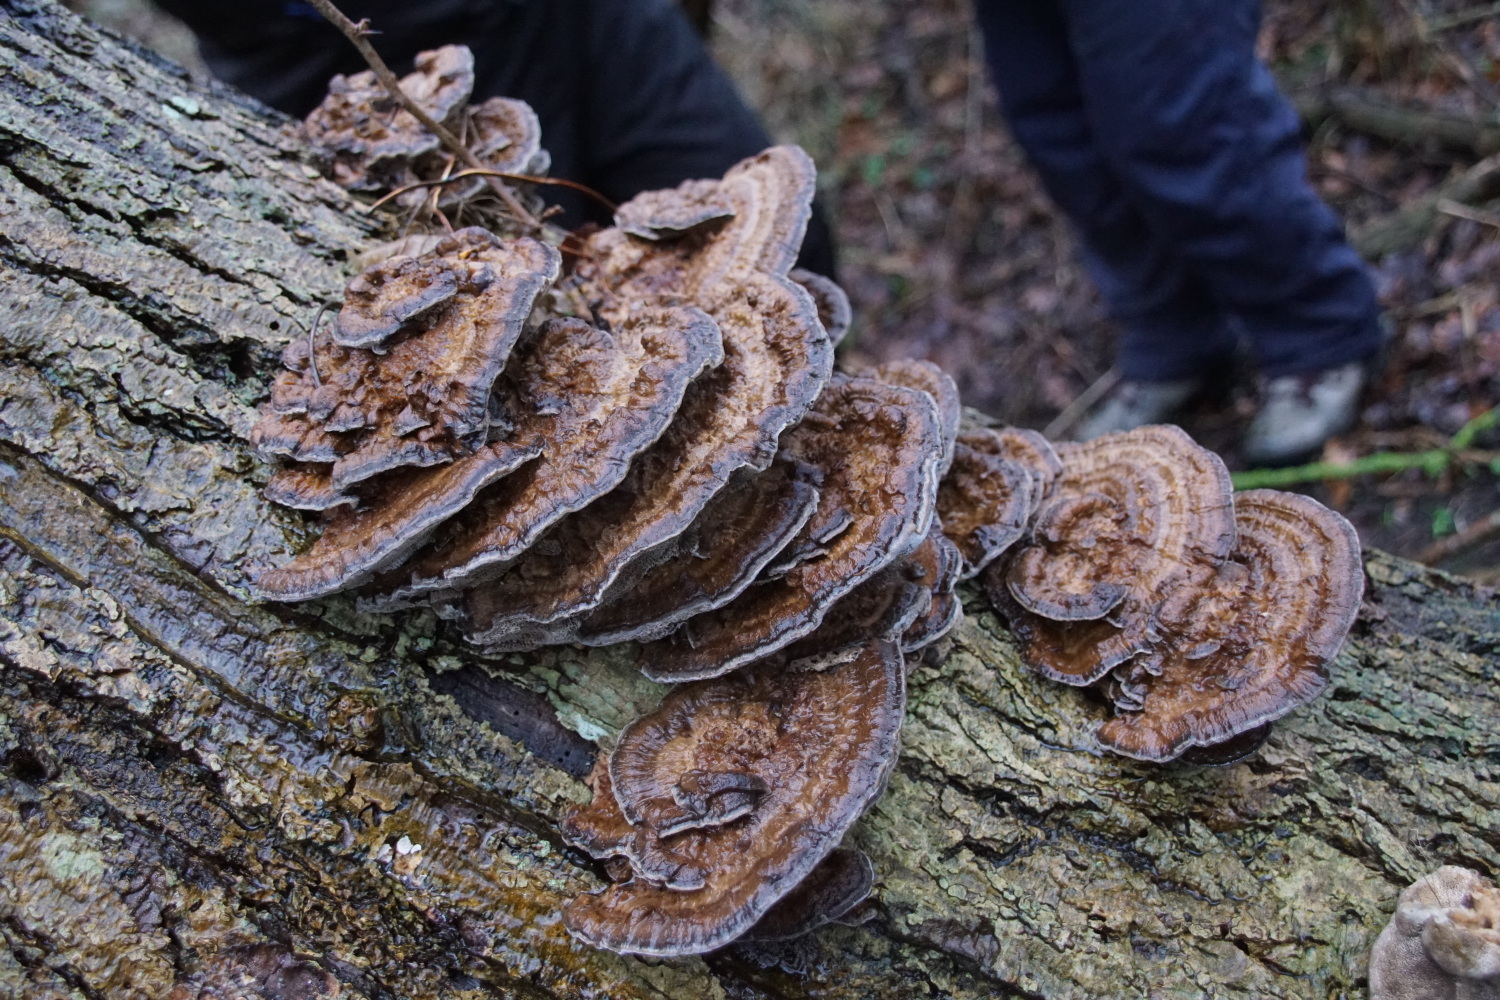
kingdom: Fungi
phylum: Basidiomycota
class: Agaricomycetes
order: Polyporales
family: Polyporaceae
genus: Daedaleopsis
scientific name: Daedaleopsis confragosa
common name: rødmende læderporesvamp
